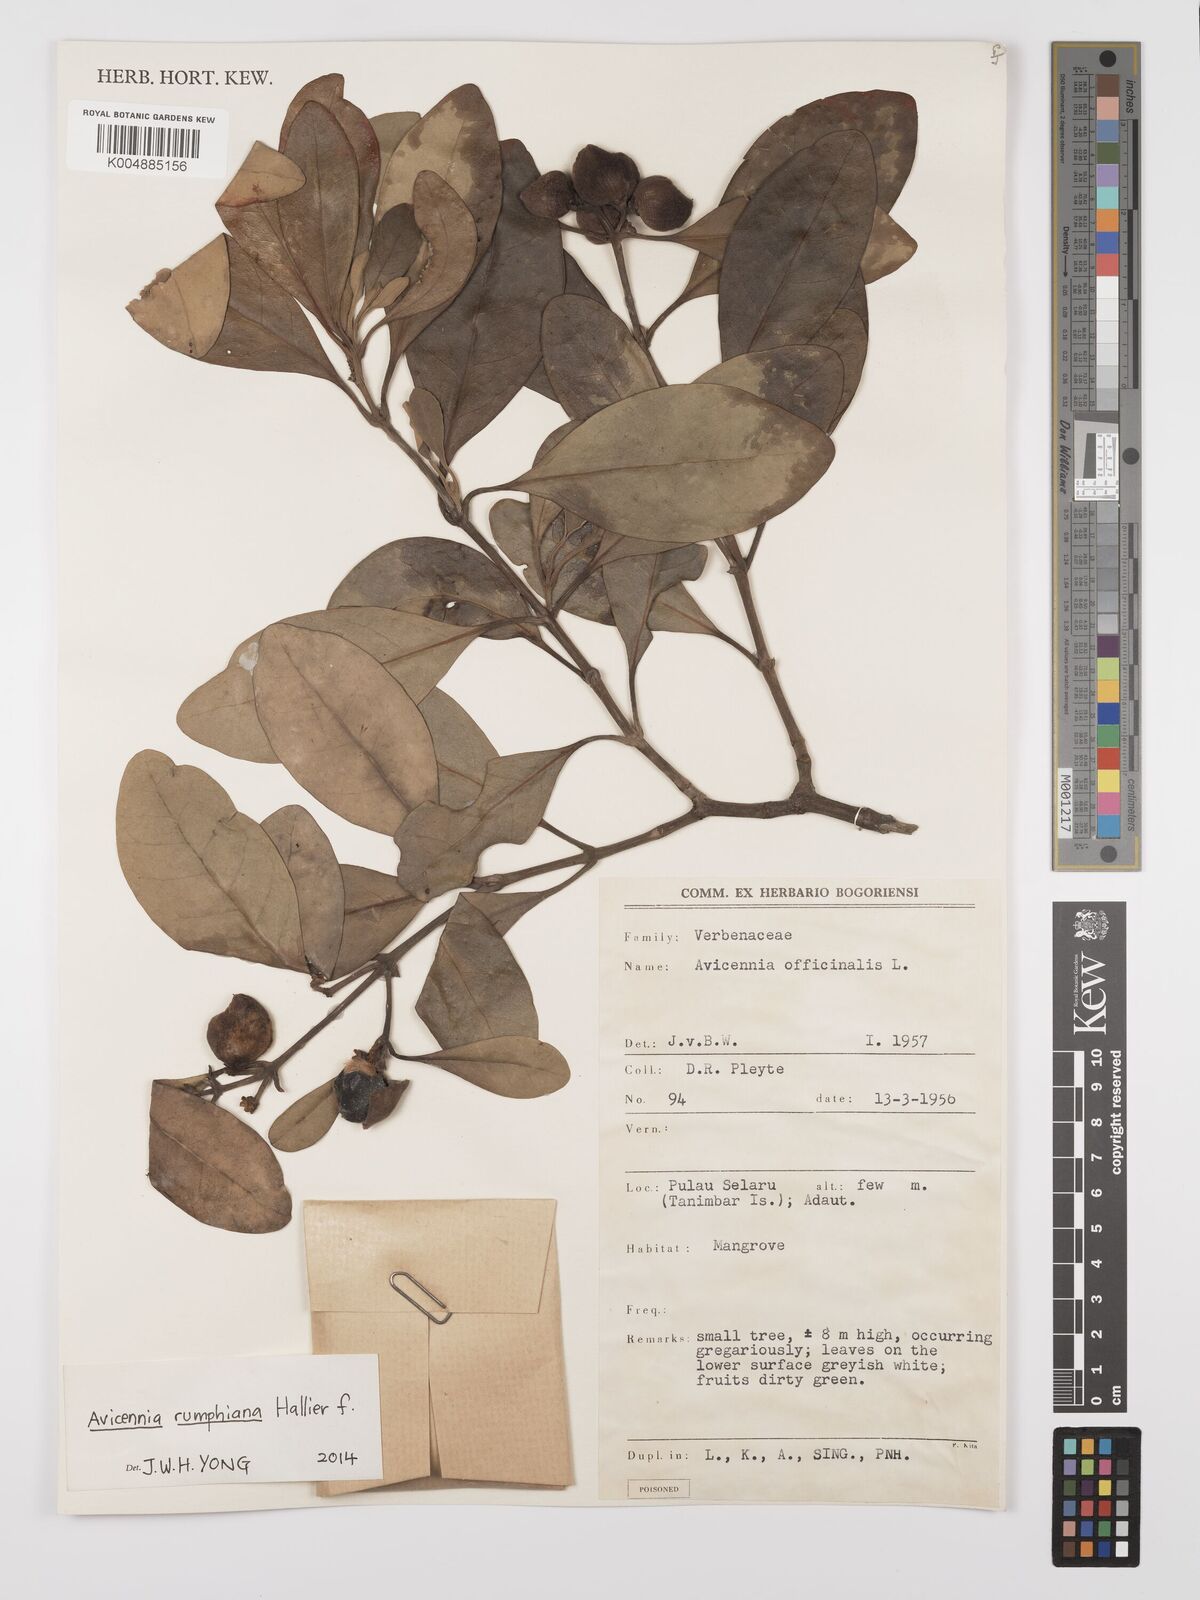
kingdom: Plantae
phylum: Tracheophyta
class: Magnoliopsida
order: Lamiales
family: Acanthaceae
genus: Avicennia
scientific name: Avicennia marina
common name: Gray mangrove
